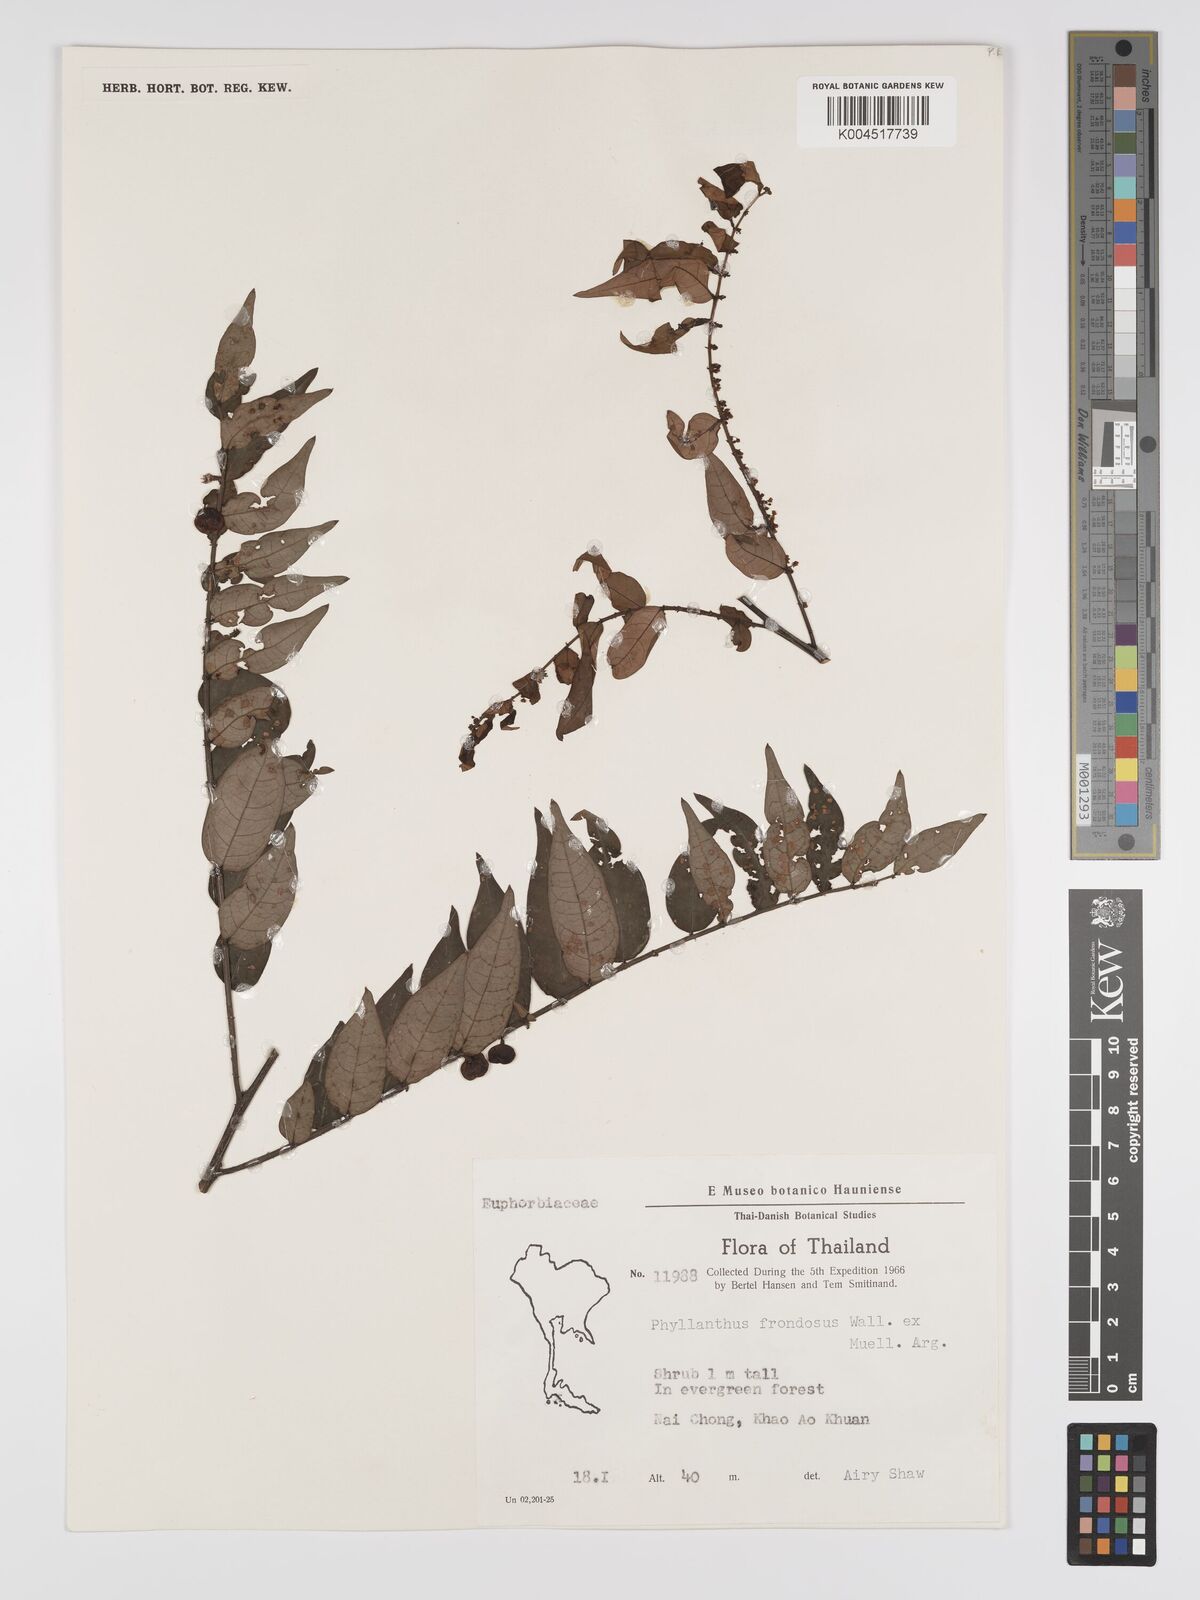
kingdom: Plantae
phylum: Tracheophyta
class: Magnoliopsida
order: Malpighiales
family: Phyllanthaceae
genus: Phyllanthus
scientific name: Phyllanthus
